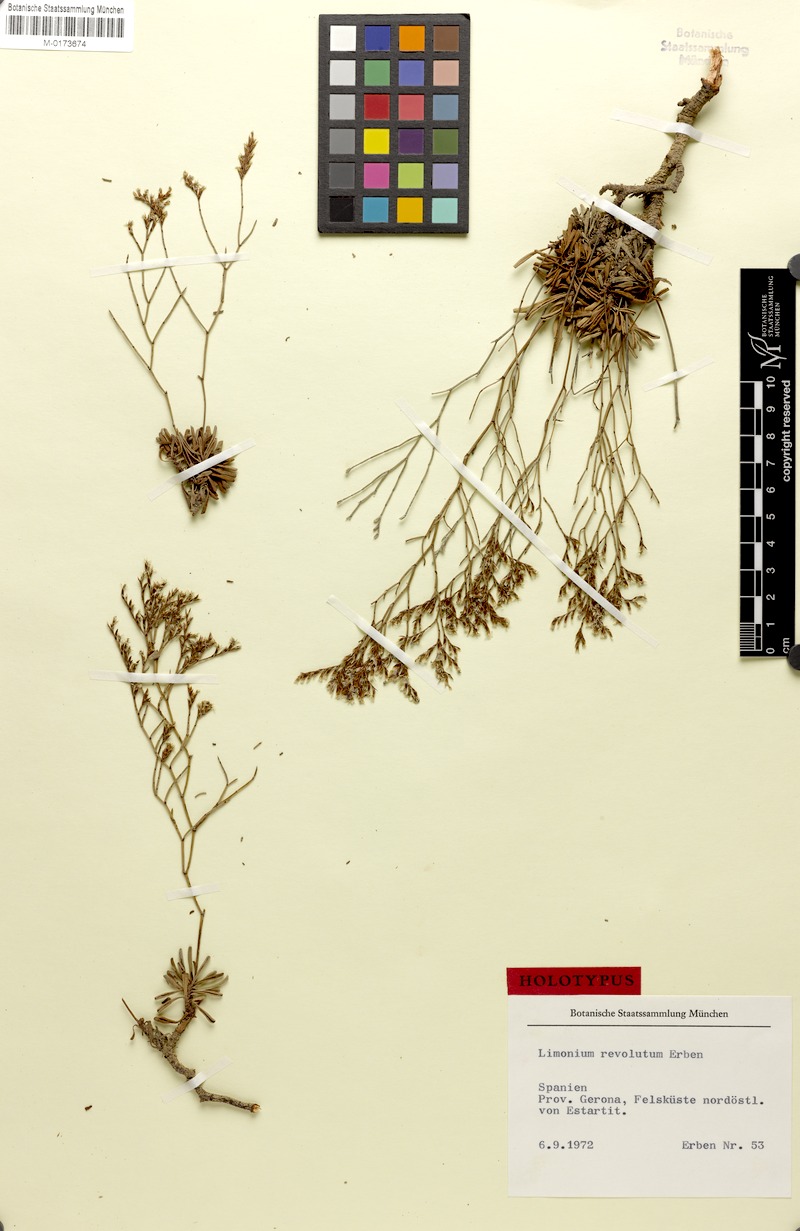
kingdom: Plantae
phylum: Tracheophyta
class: Magnoliopsida
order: Caryophyllales
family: Plumbaginaceae
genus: Limonium
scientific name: Limonium revolutum
